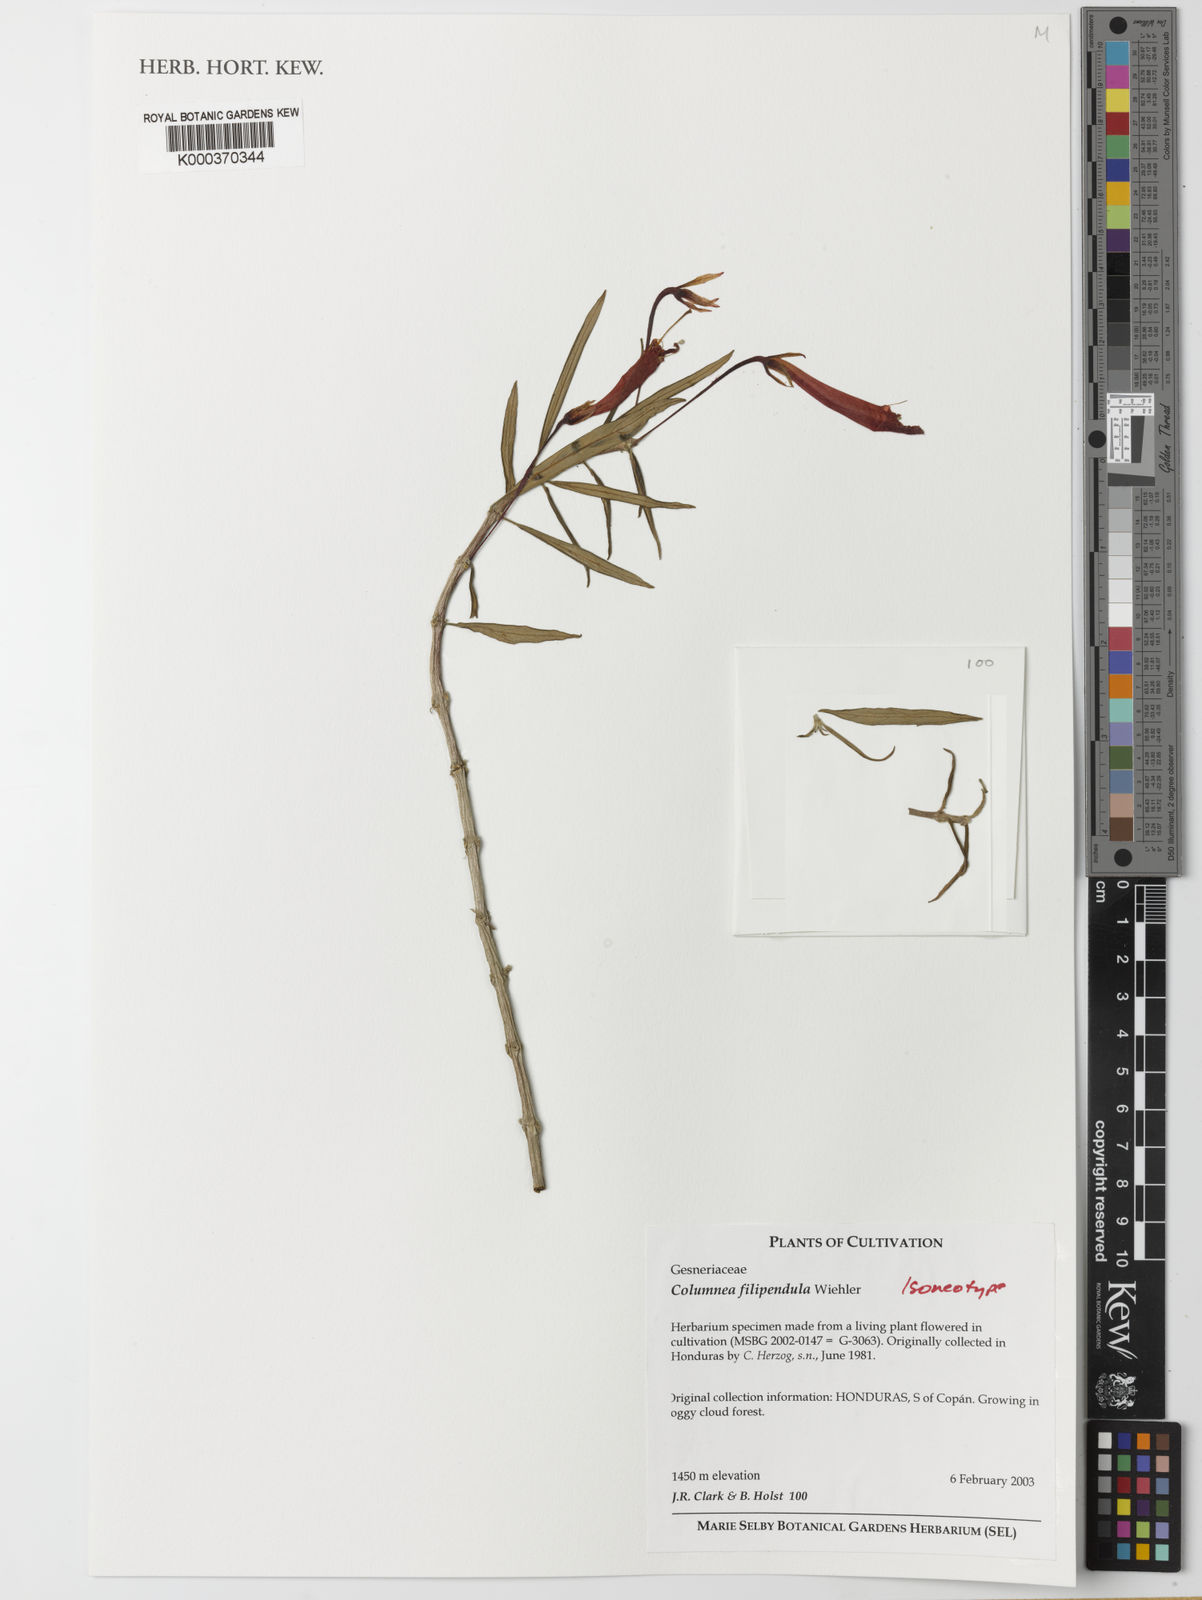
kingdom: Plantae
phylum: Tracheophyta
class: Magnoliopsida
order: Lamiales
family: Gesneriaceae
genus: Columnea
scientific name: Columnea rubricaulis
